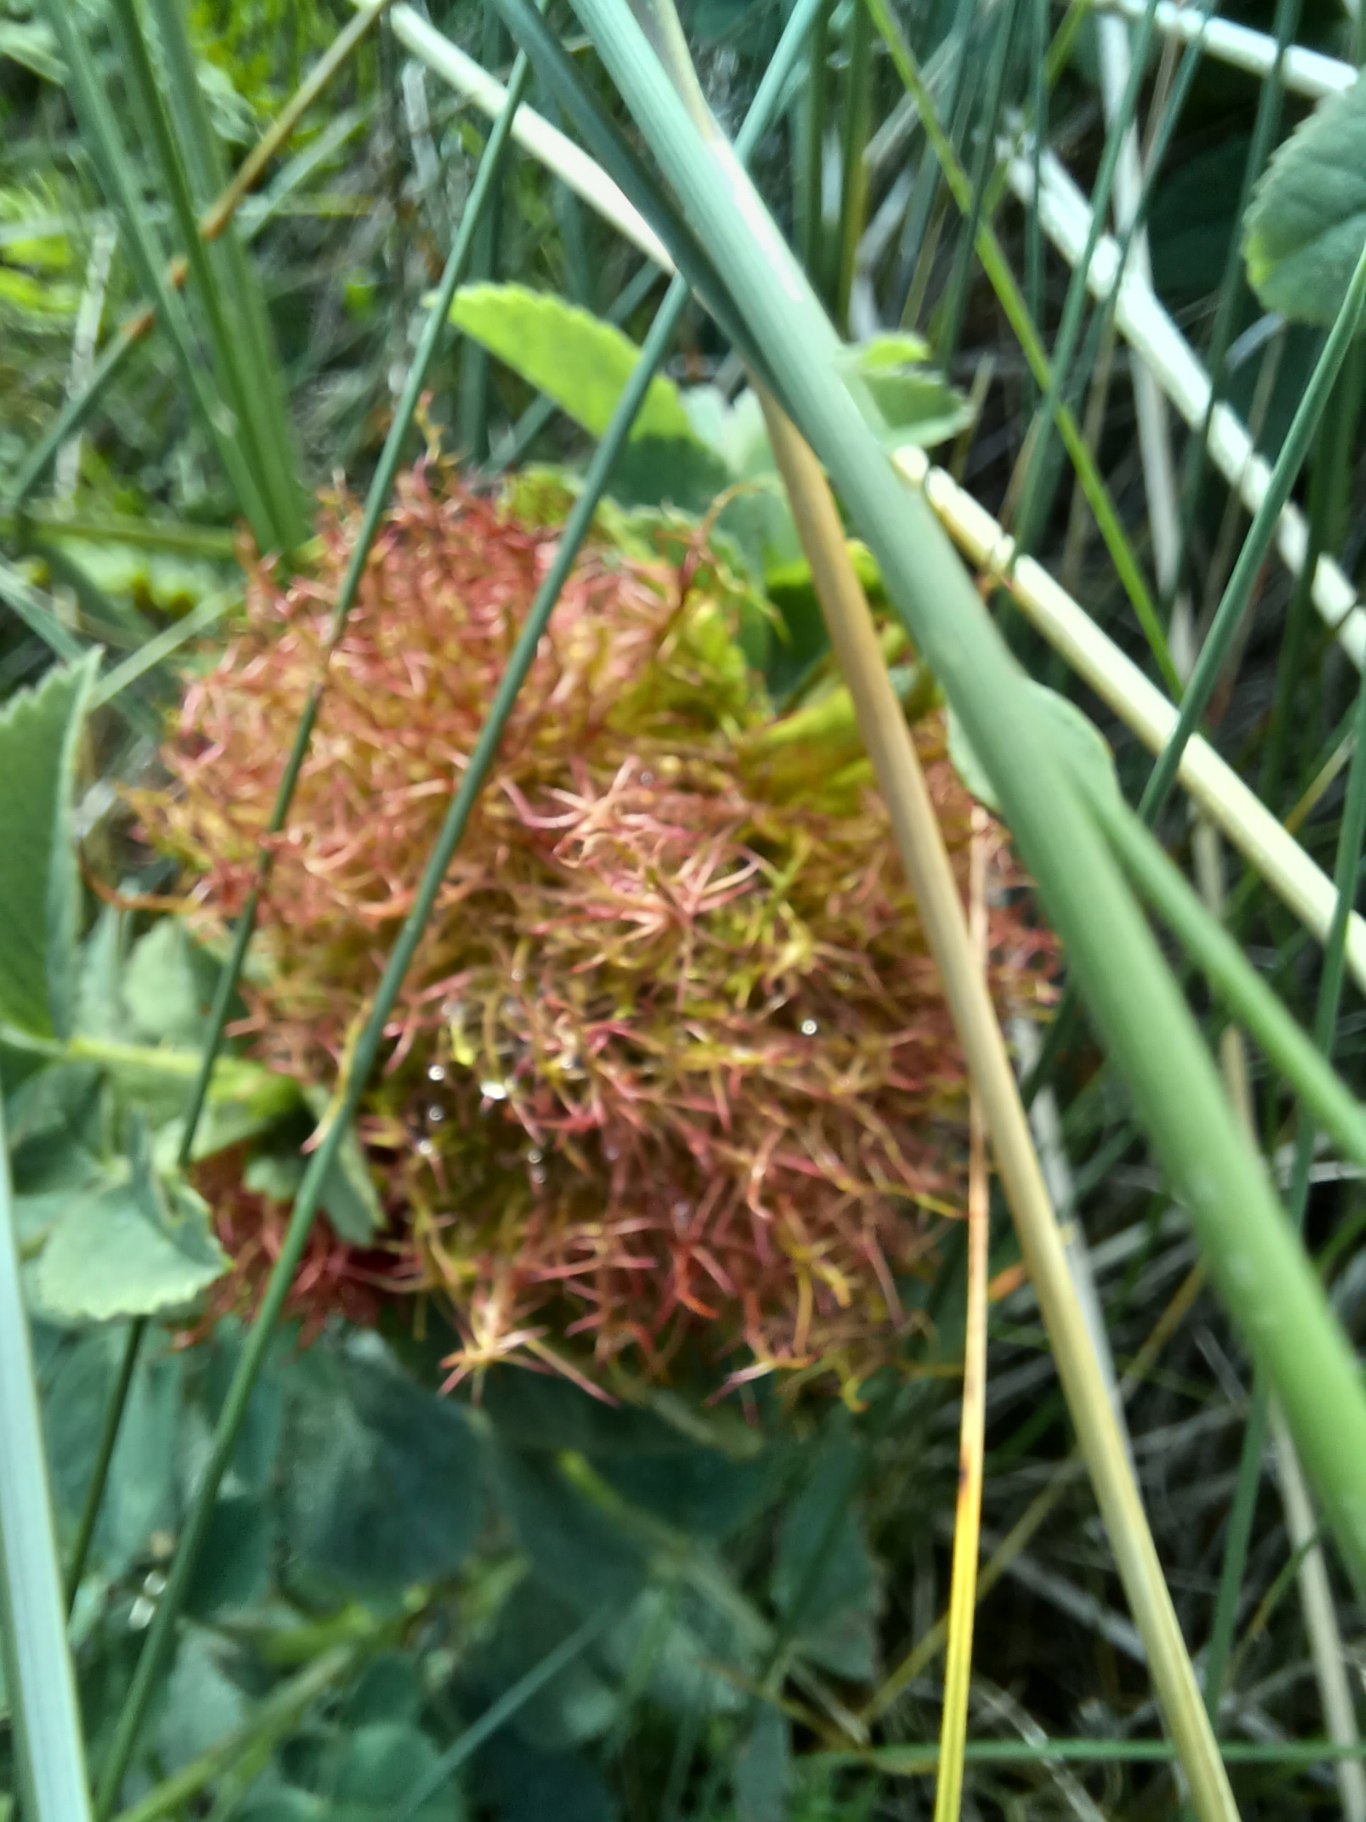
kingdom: Animalia
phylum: Arthropoda
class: Insecta
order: Hymenoptera
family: Cynipidae
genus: Diplolepis
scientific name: Diplolepis rosae
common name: Bedeguargalhveps
